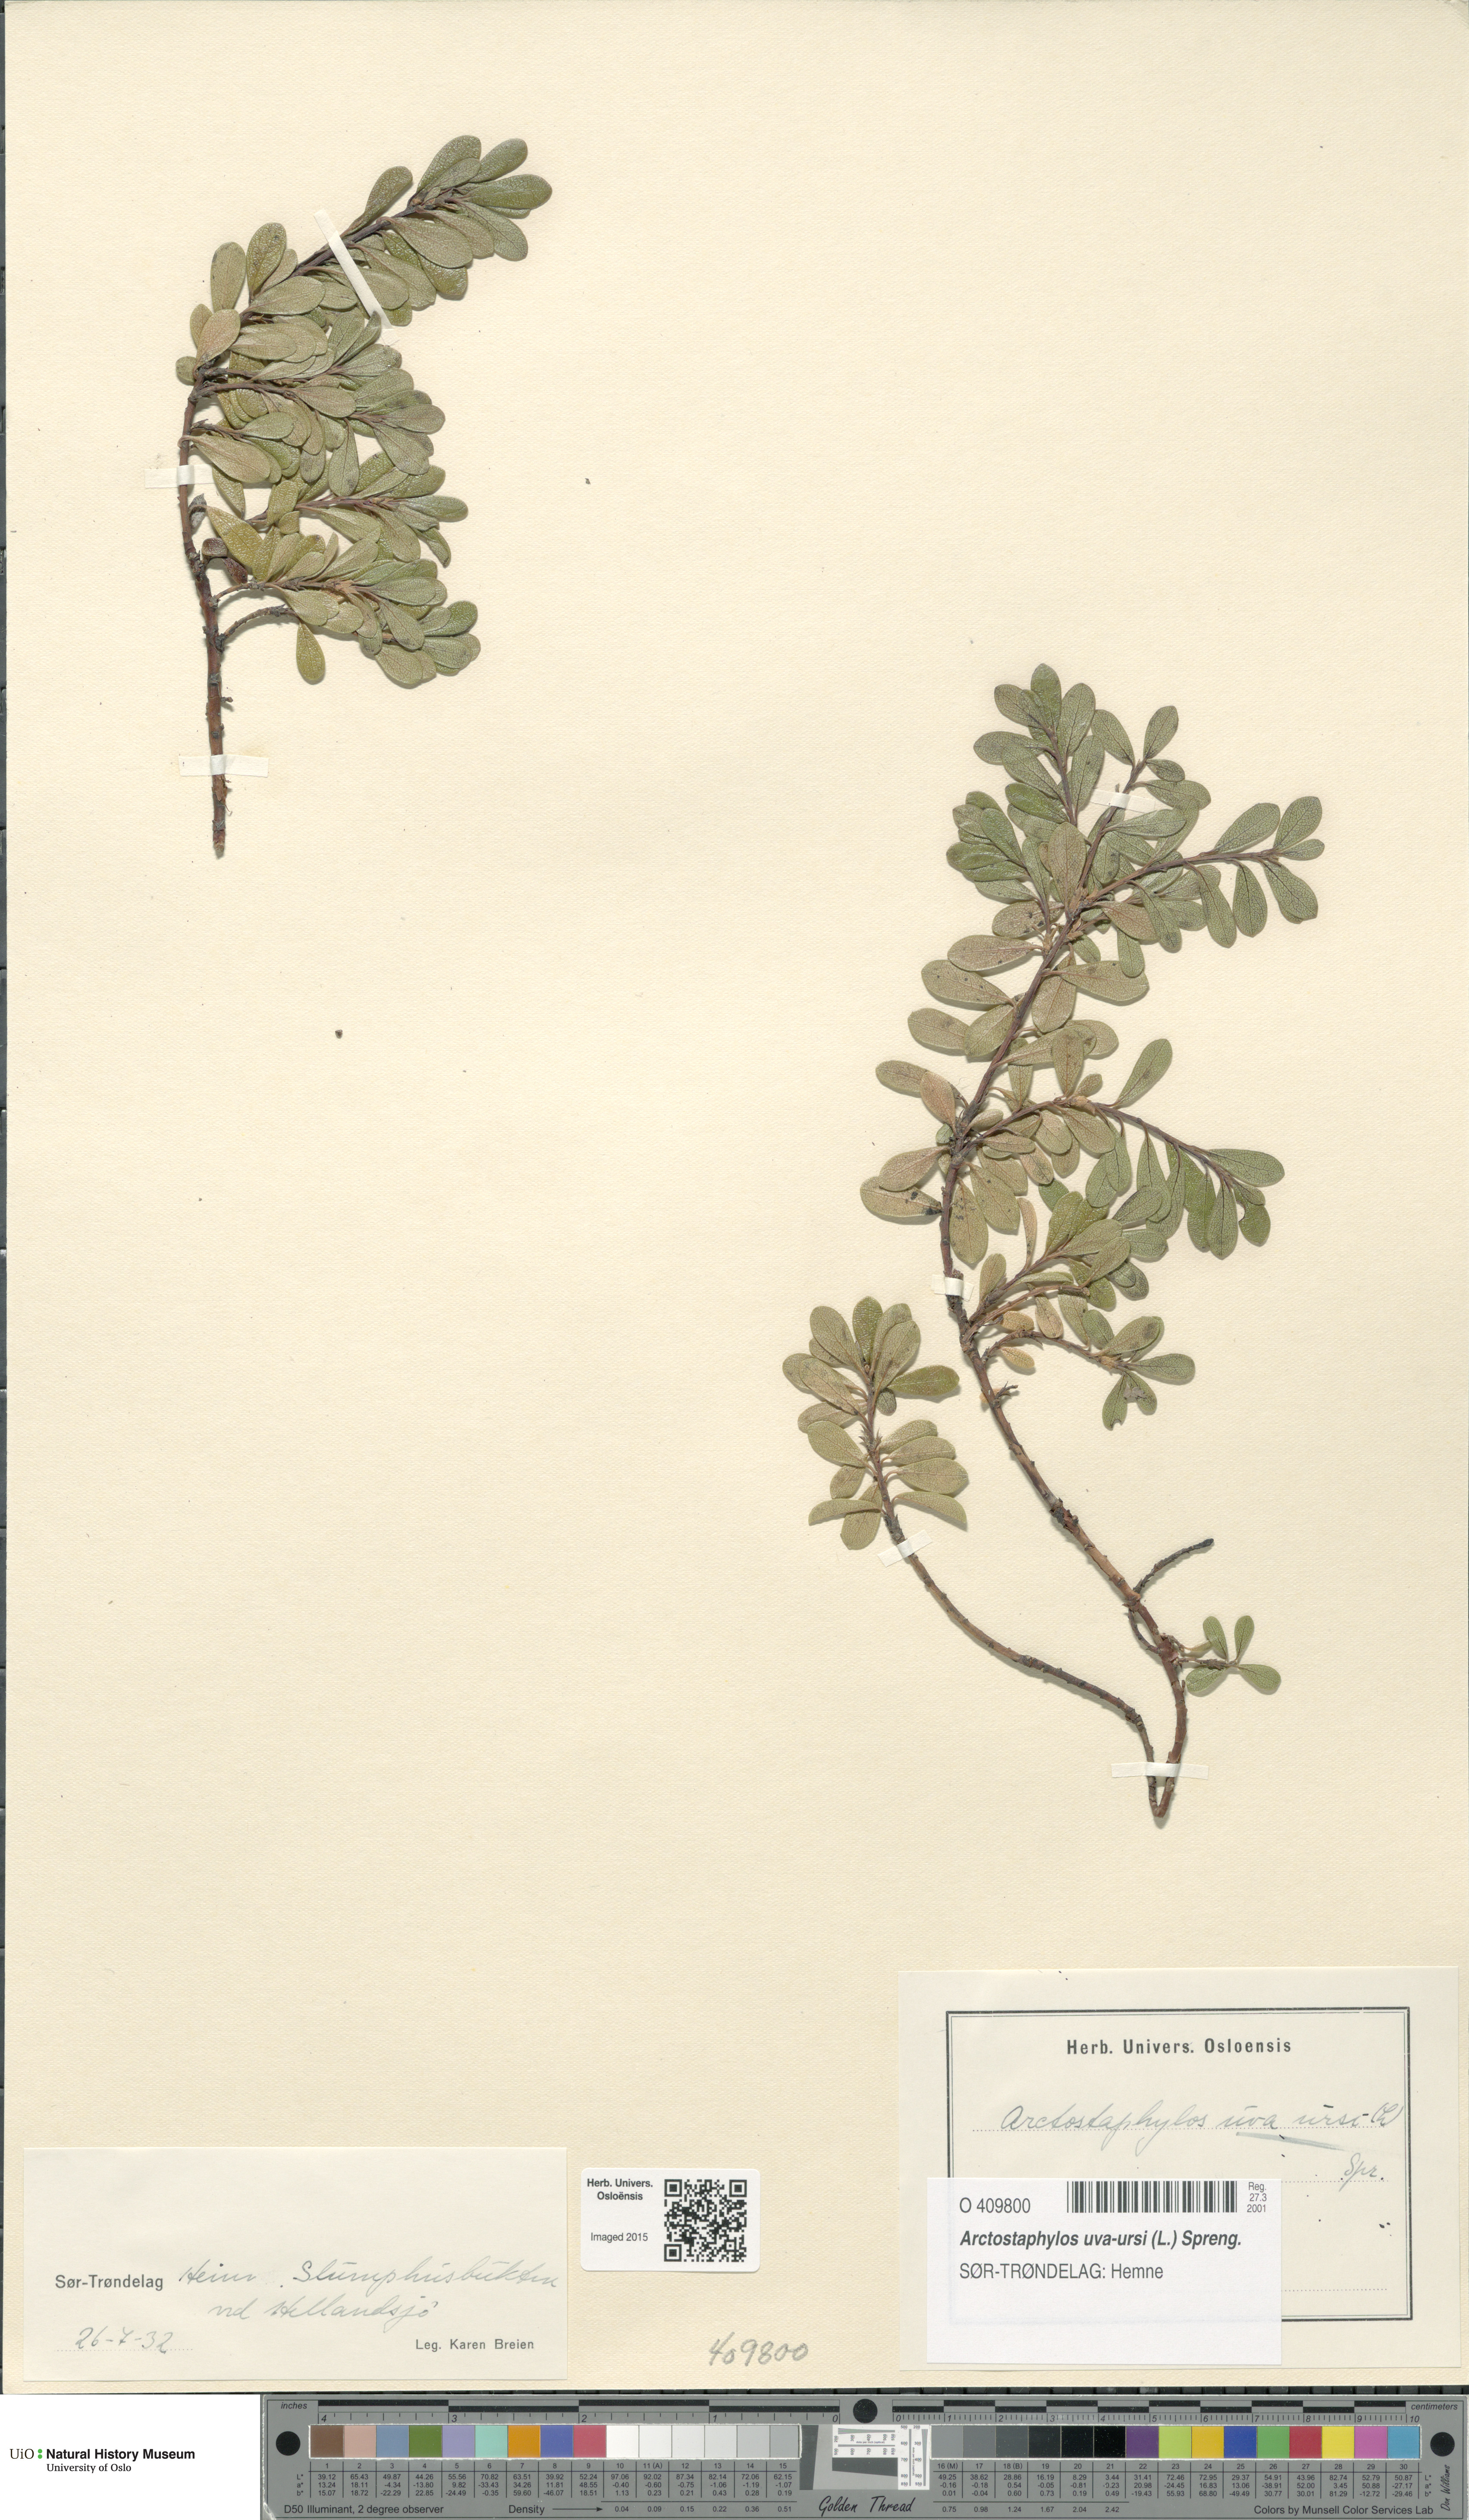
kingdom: Plantae
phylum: Tracheophyta
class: Magnoliopsida
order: Ericales
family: Ericaceae
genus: Arctostaphylos
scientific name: Arctostaphylos uva-ursi
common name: Bearberry
